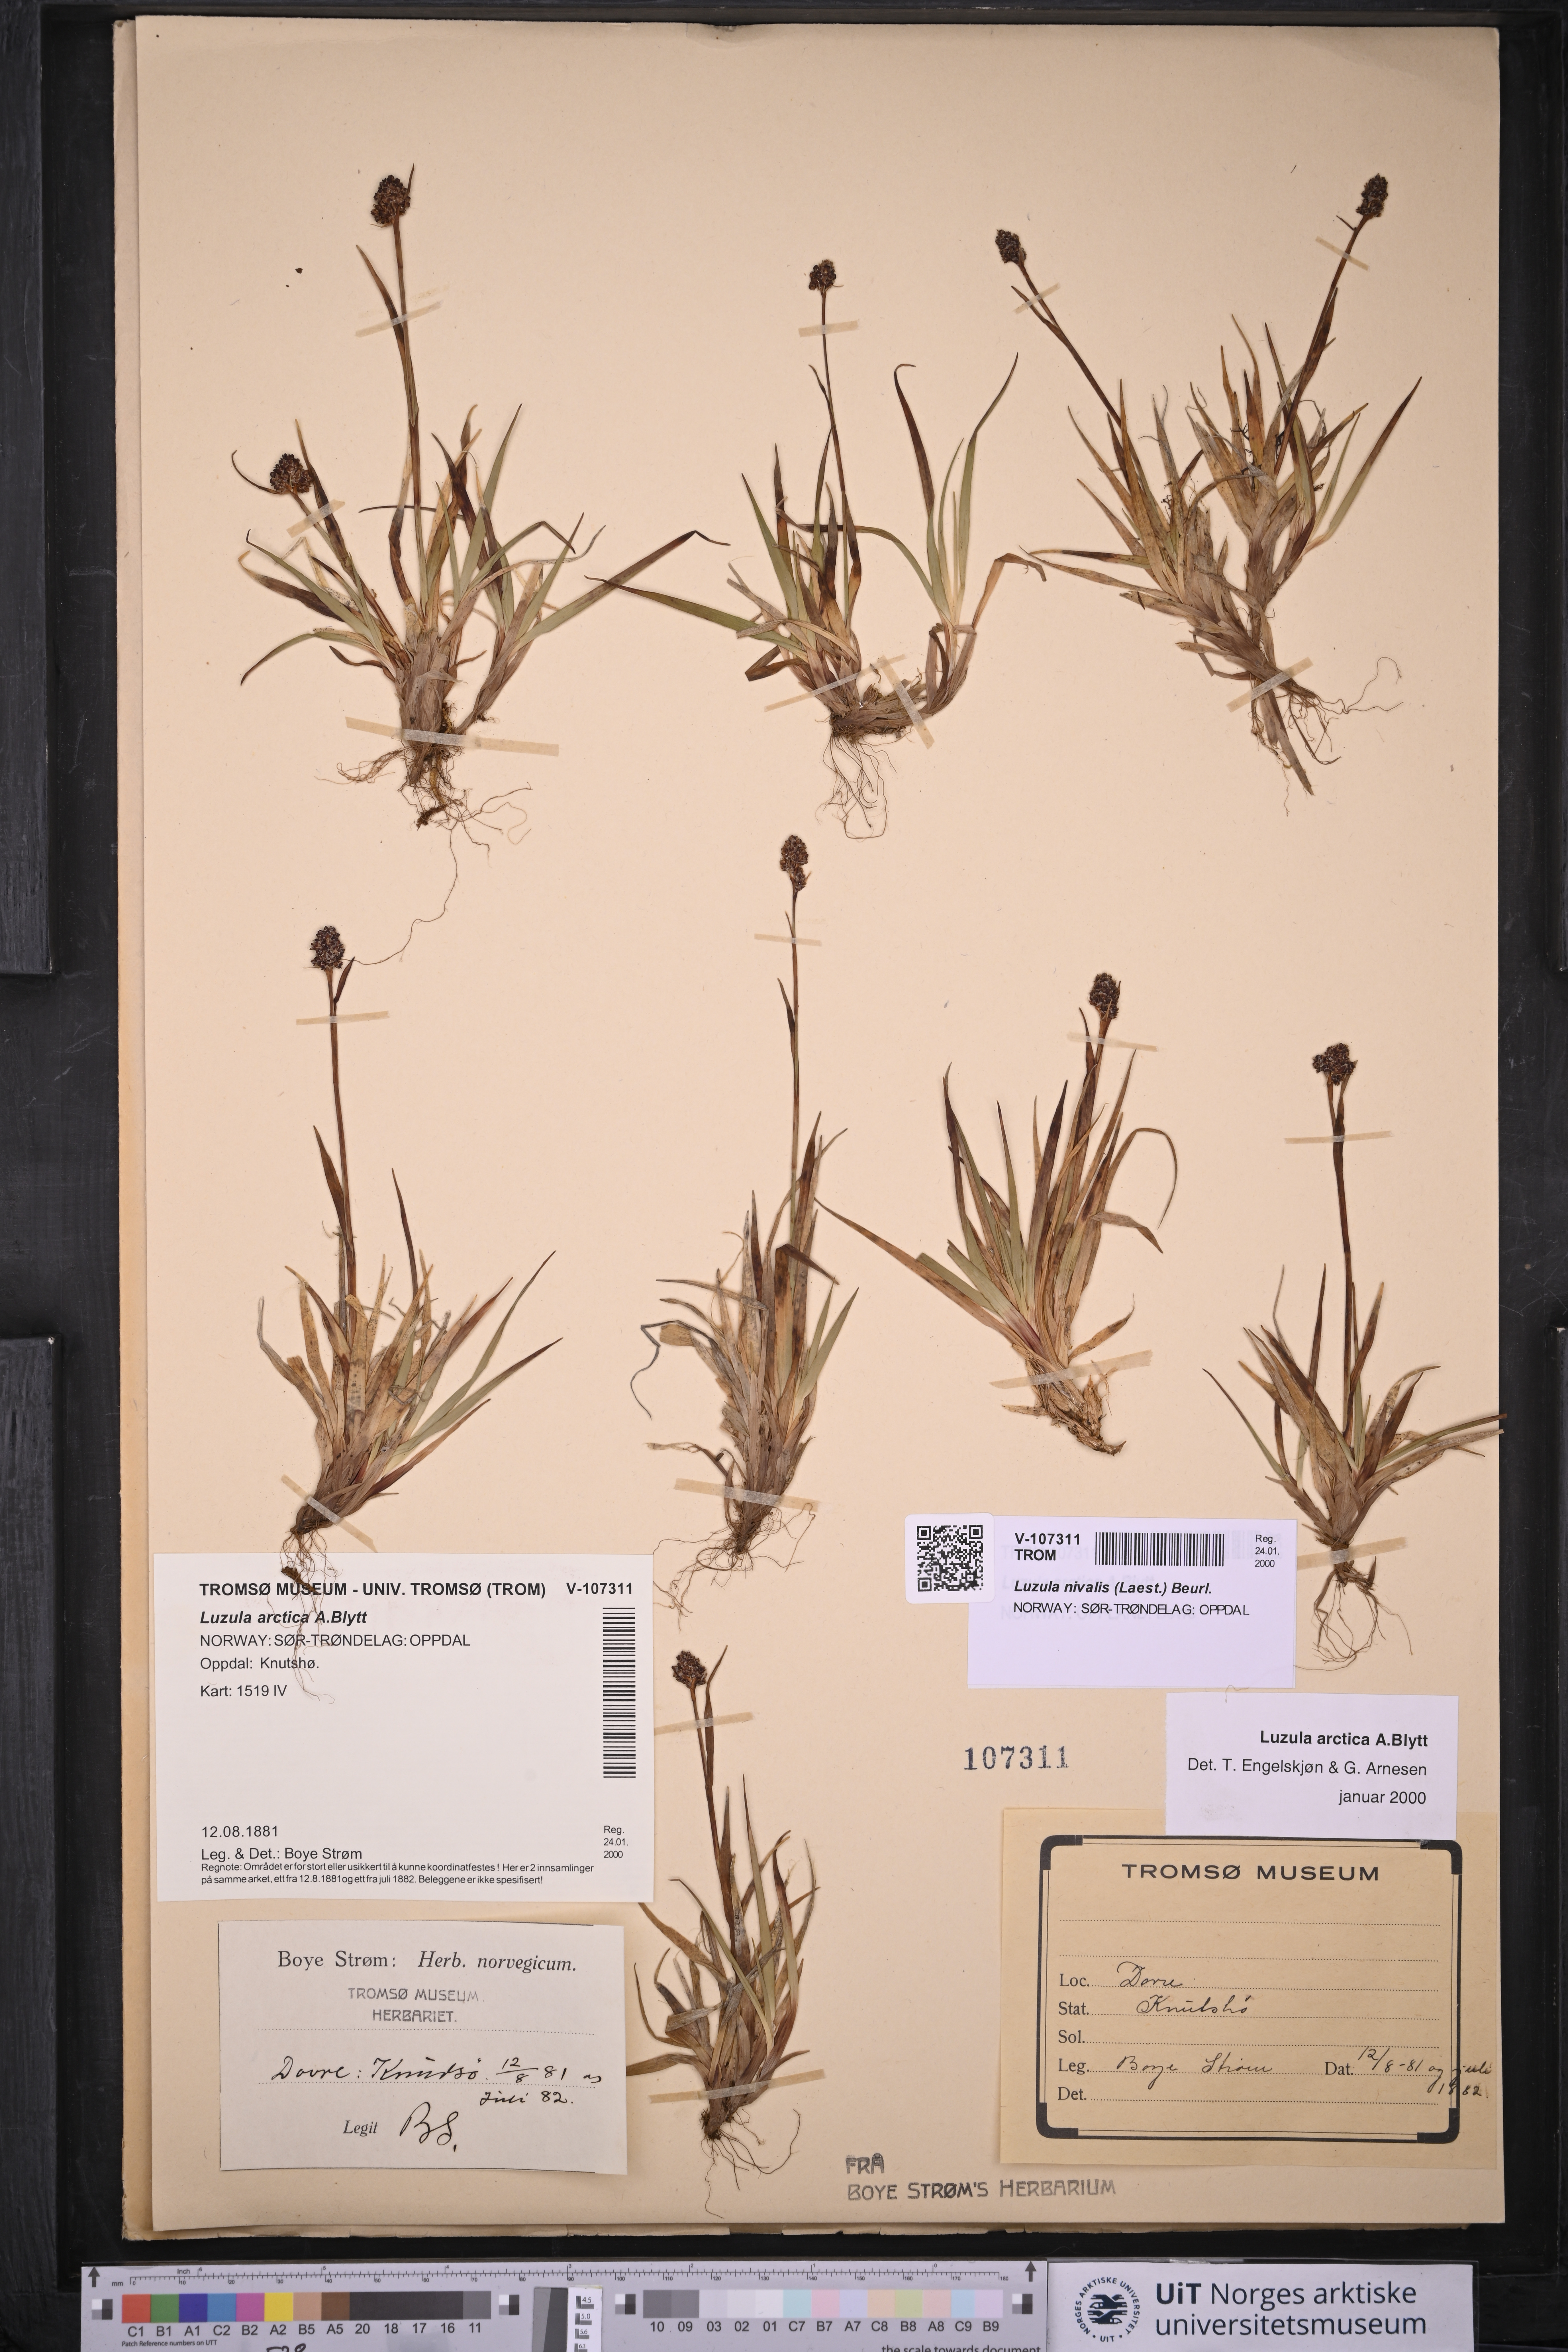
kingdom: Plantae
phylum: Tracheophyta
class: Liliopsida
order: Poales
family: Juncaceae
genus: Luzula
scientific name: Luzula nivalis
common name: Arctic woodrush
